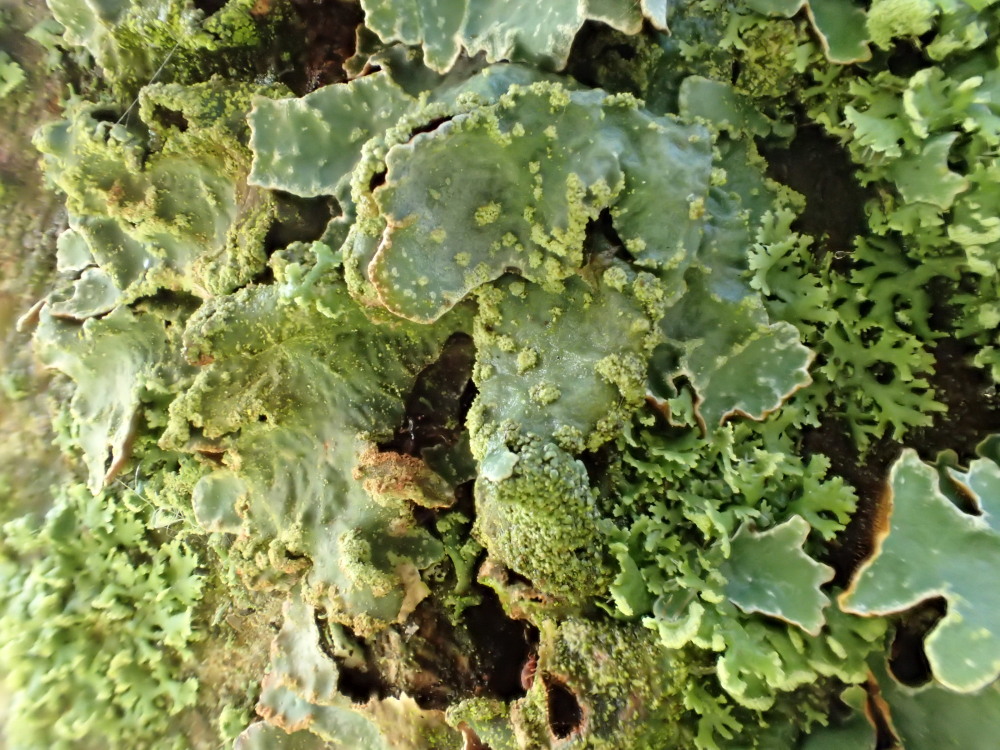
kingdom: Fungi
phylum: Ascomycota
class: Lecanoromycetes
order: Lecanorales
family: Parmeliaceae
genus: Parmelia
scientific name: Parmelia sulcata
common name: rynket skållav
